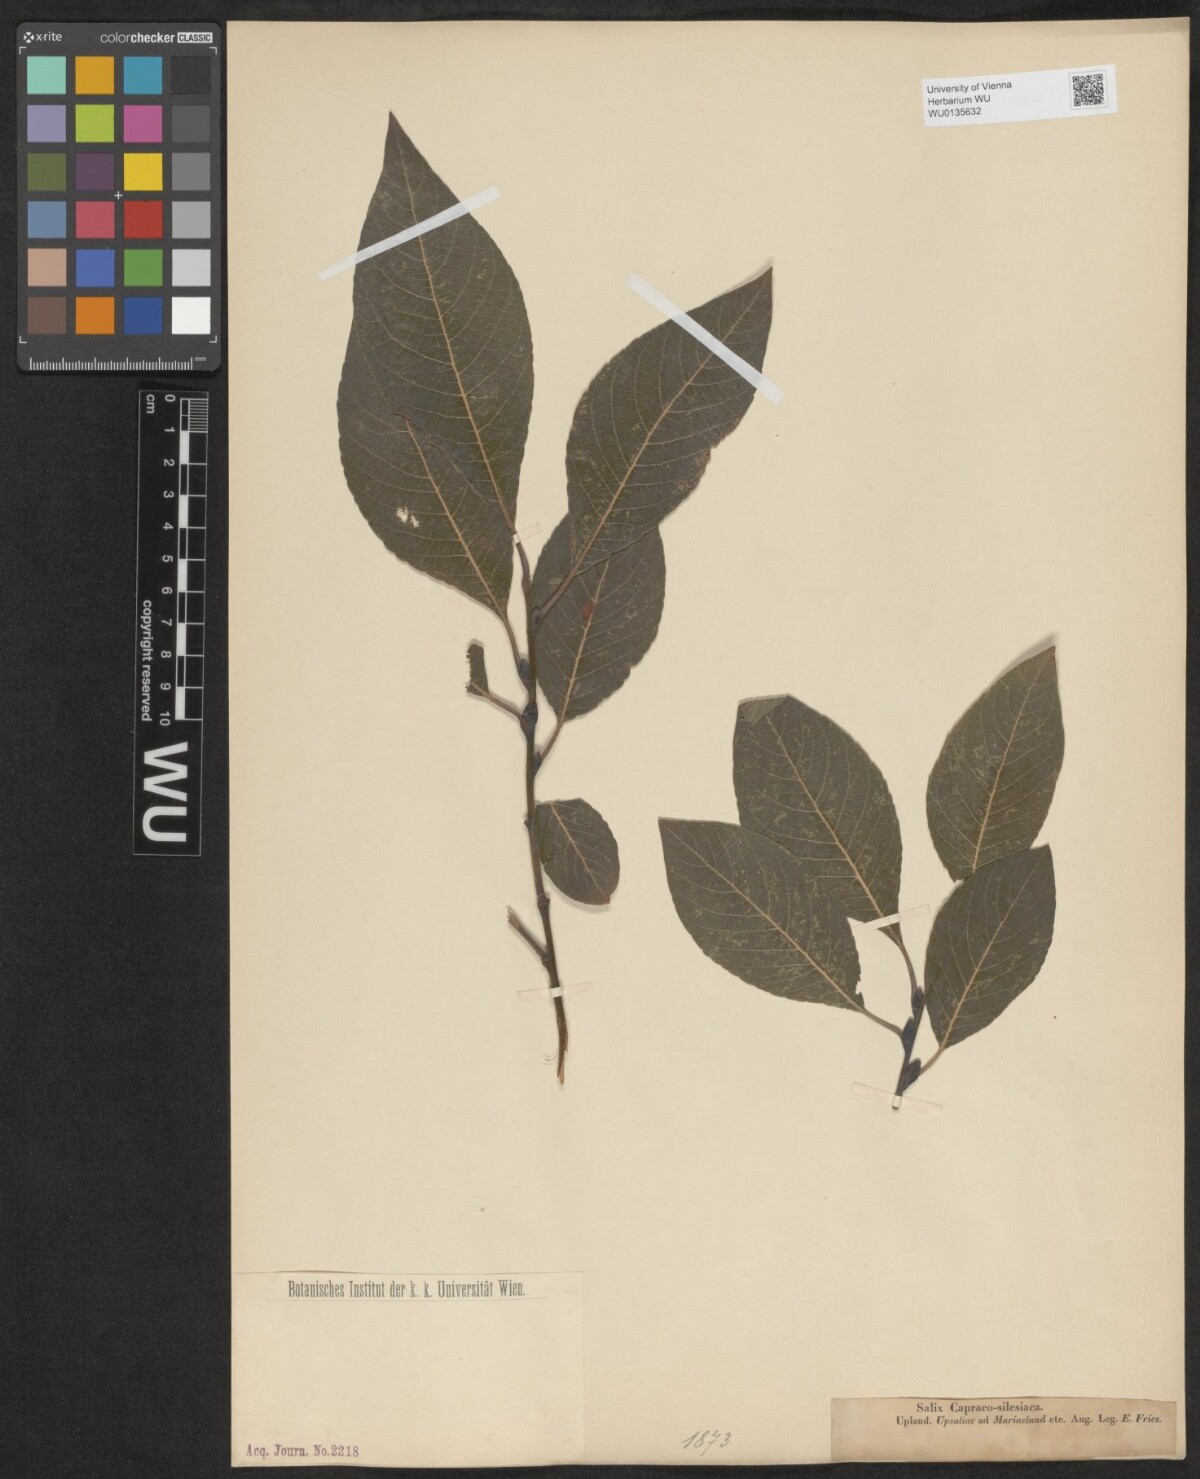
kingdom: Plantae
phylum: Tracheophyta
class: Magnoliopsida
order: Malpighiales
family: Salicaceae
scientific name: Salicaceae
